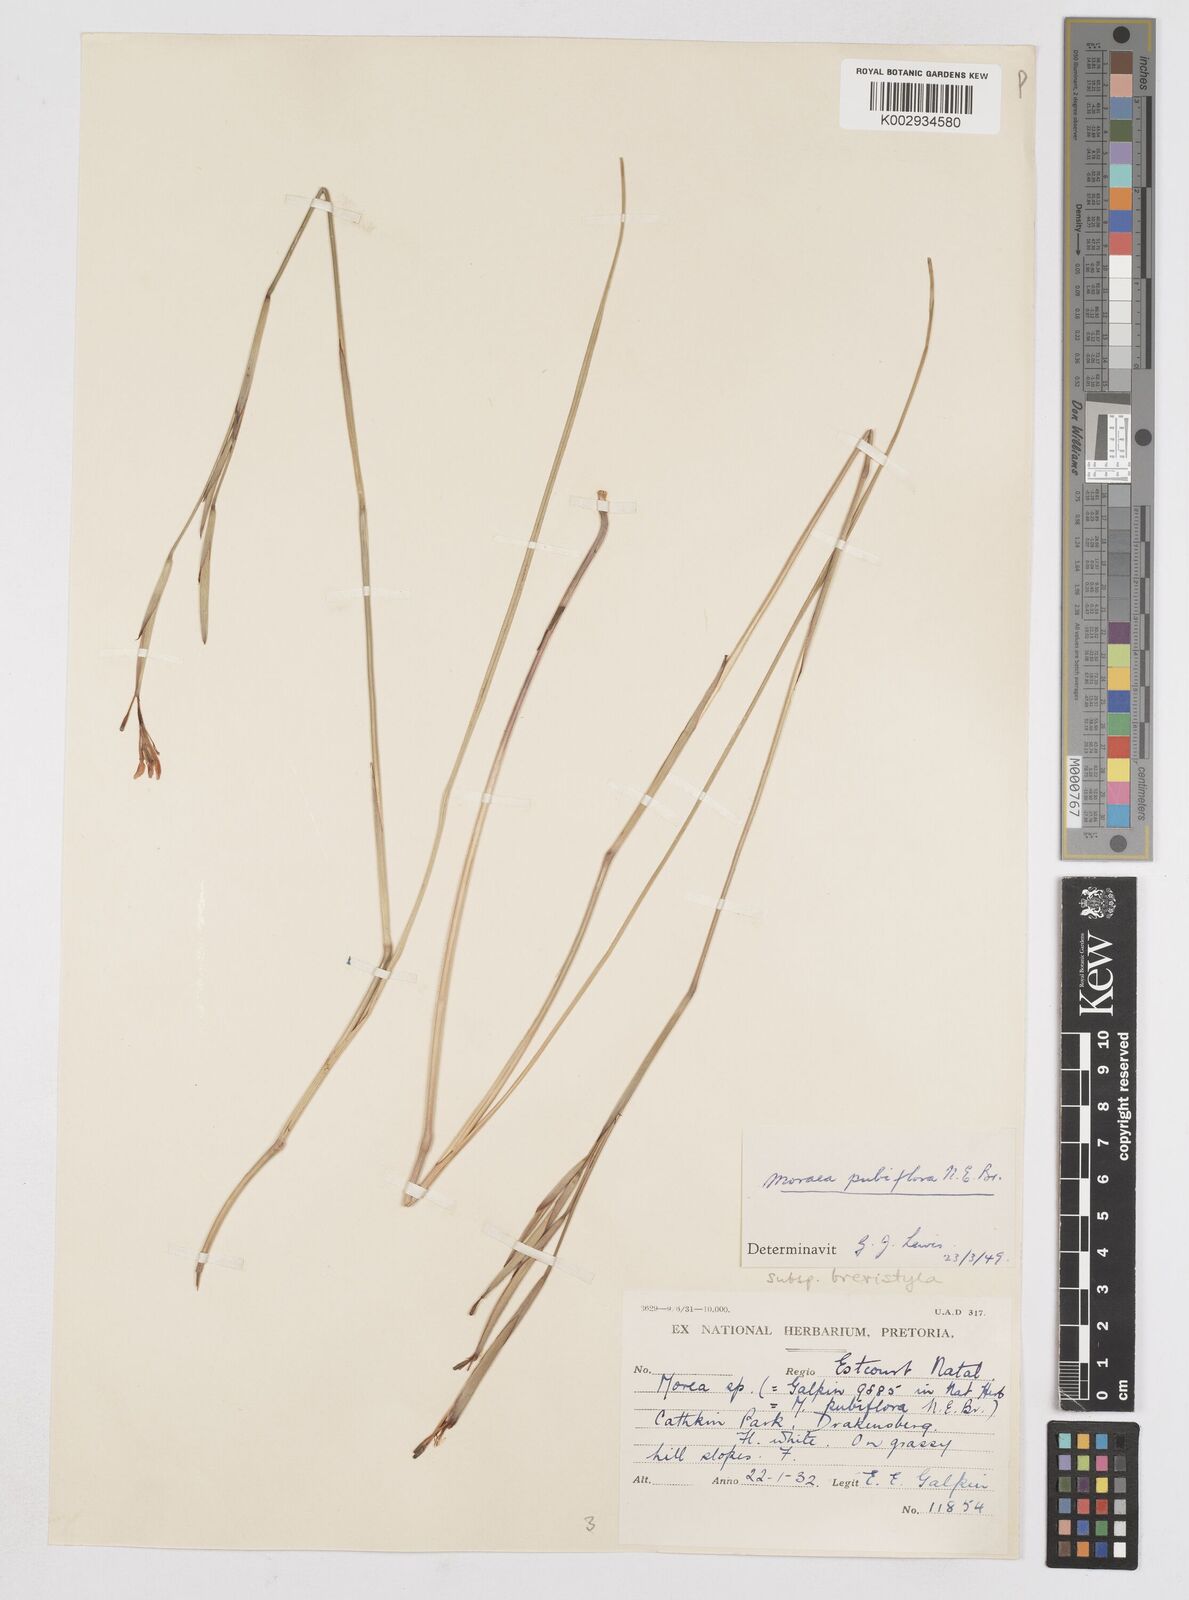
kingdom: Plantae
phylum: Tracheophyta
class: Liliopsida
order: Asparagales
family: Iridaceae
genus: Moraea
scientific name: Moraea brevistyla
